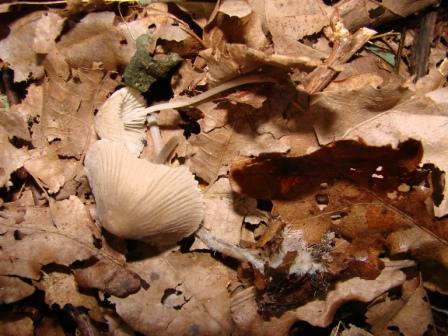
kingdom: Fungi
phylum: Basidiomycota
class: Agaricomycetes
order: Agaricales
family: Mycenaceae
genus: Mycena
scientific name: Mycena polygramma
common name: mangestribet huesvamp
